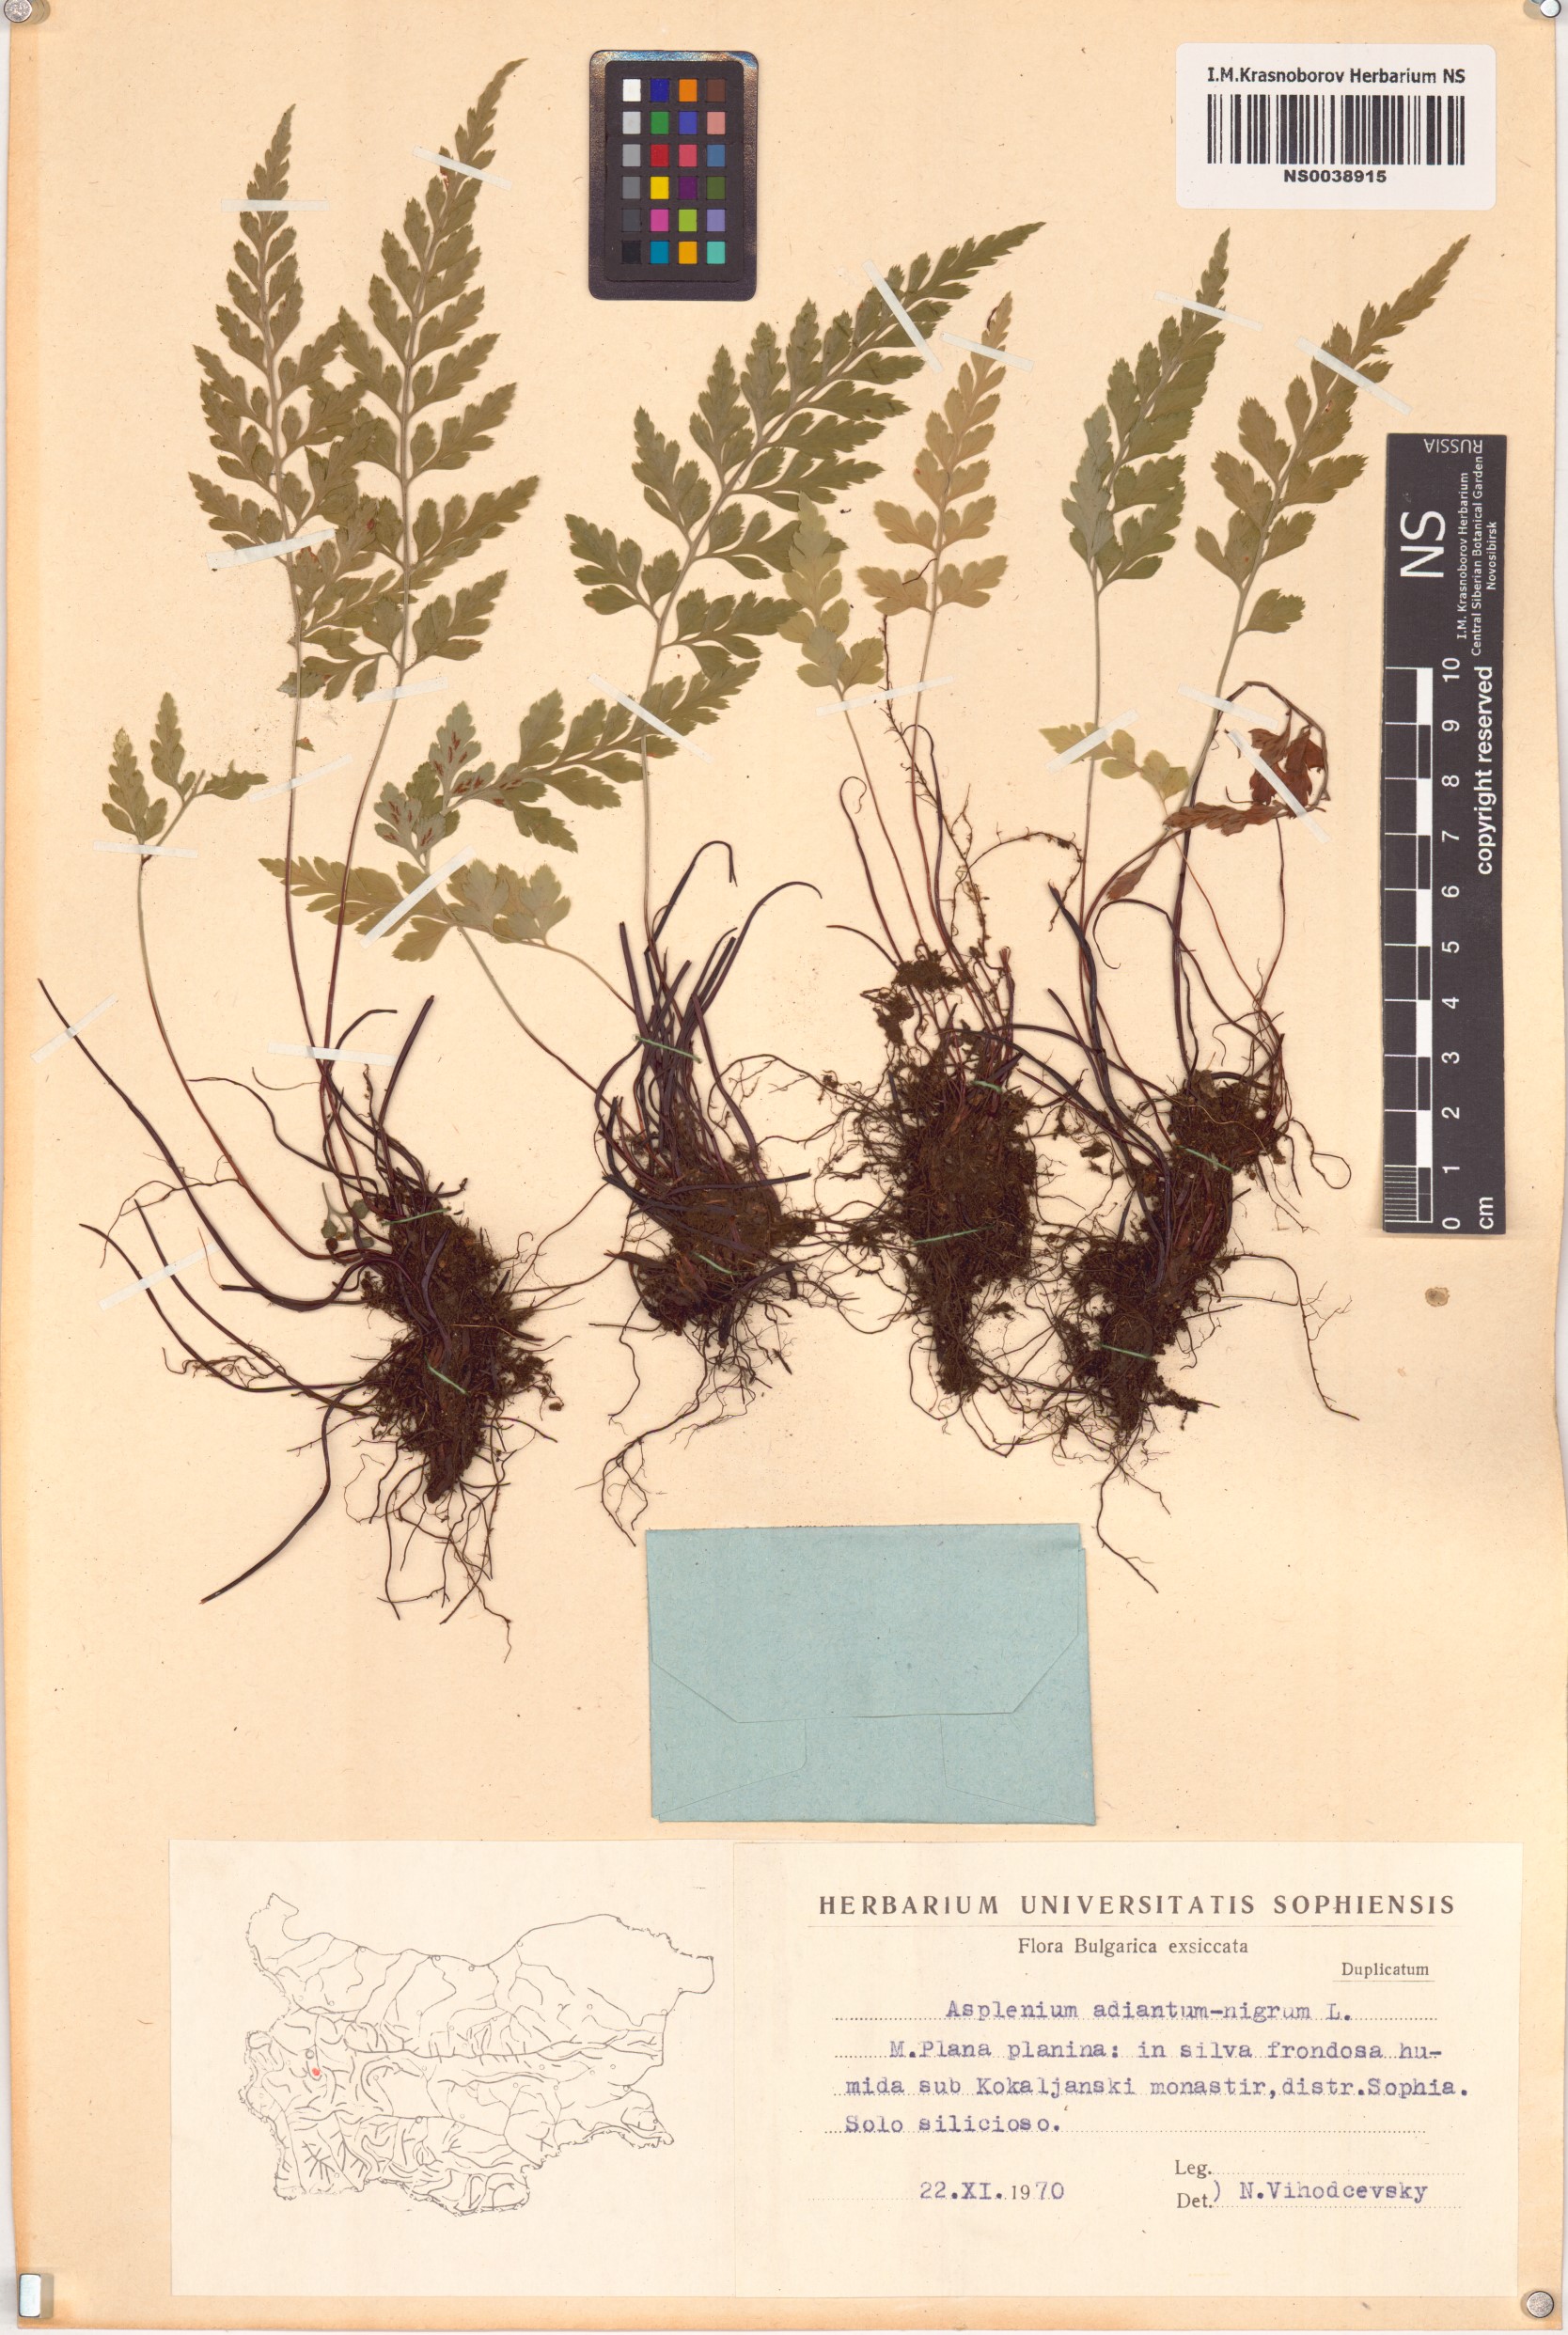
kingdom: Plantae
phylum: Tracheophyta
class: Polypodiopsida
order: Polypodiales
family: Aspleniaceae
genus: Asplenium
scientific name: Asplenium adiantum-nigrum
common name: Black spleenwort
